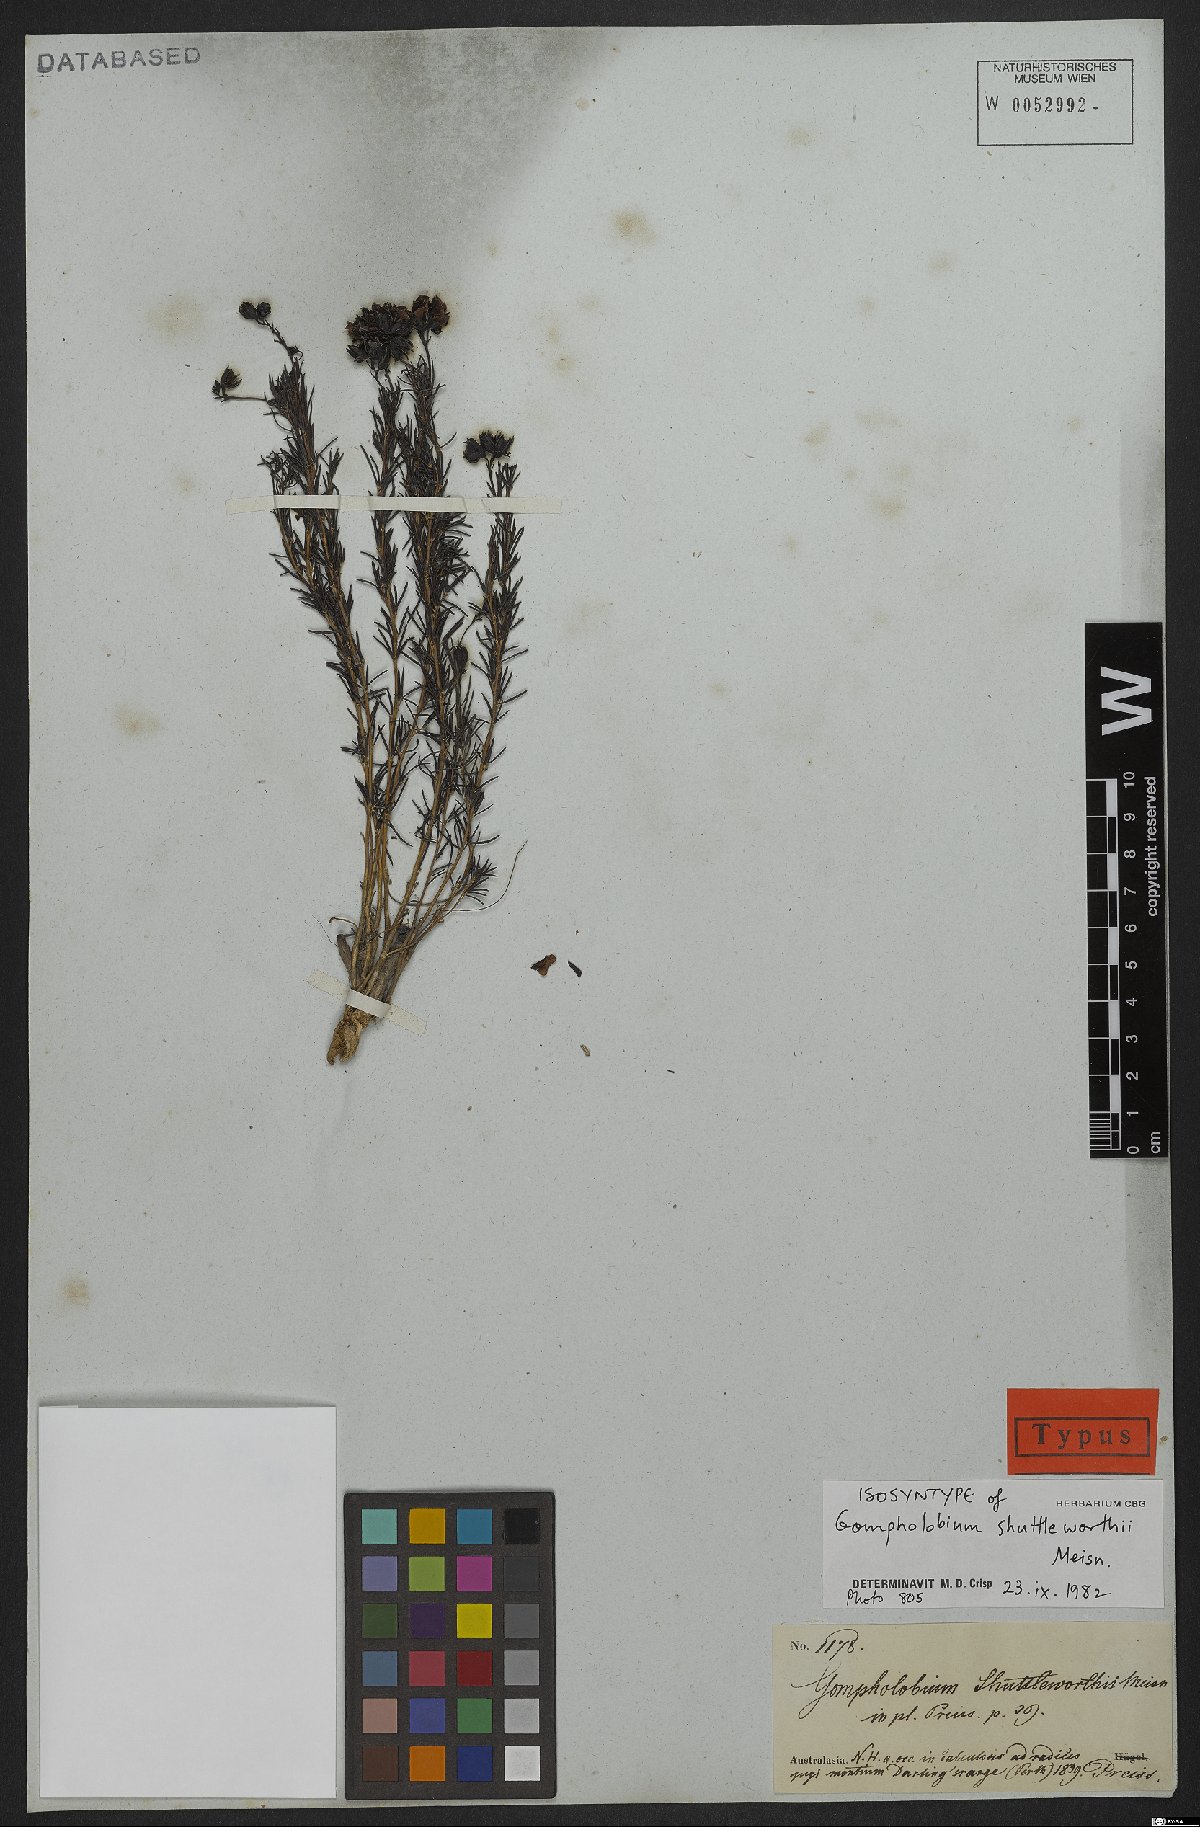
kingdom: Plantae
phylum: Tracheophyta
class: Magnoliopsida
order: Fabales
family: Fabaceae
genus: Gompholobium
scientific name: Gompholobium shuttleworthii
